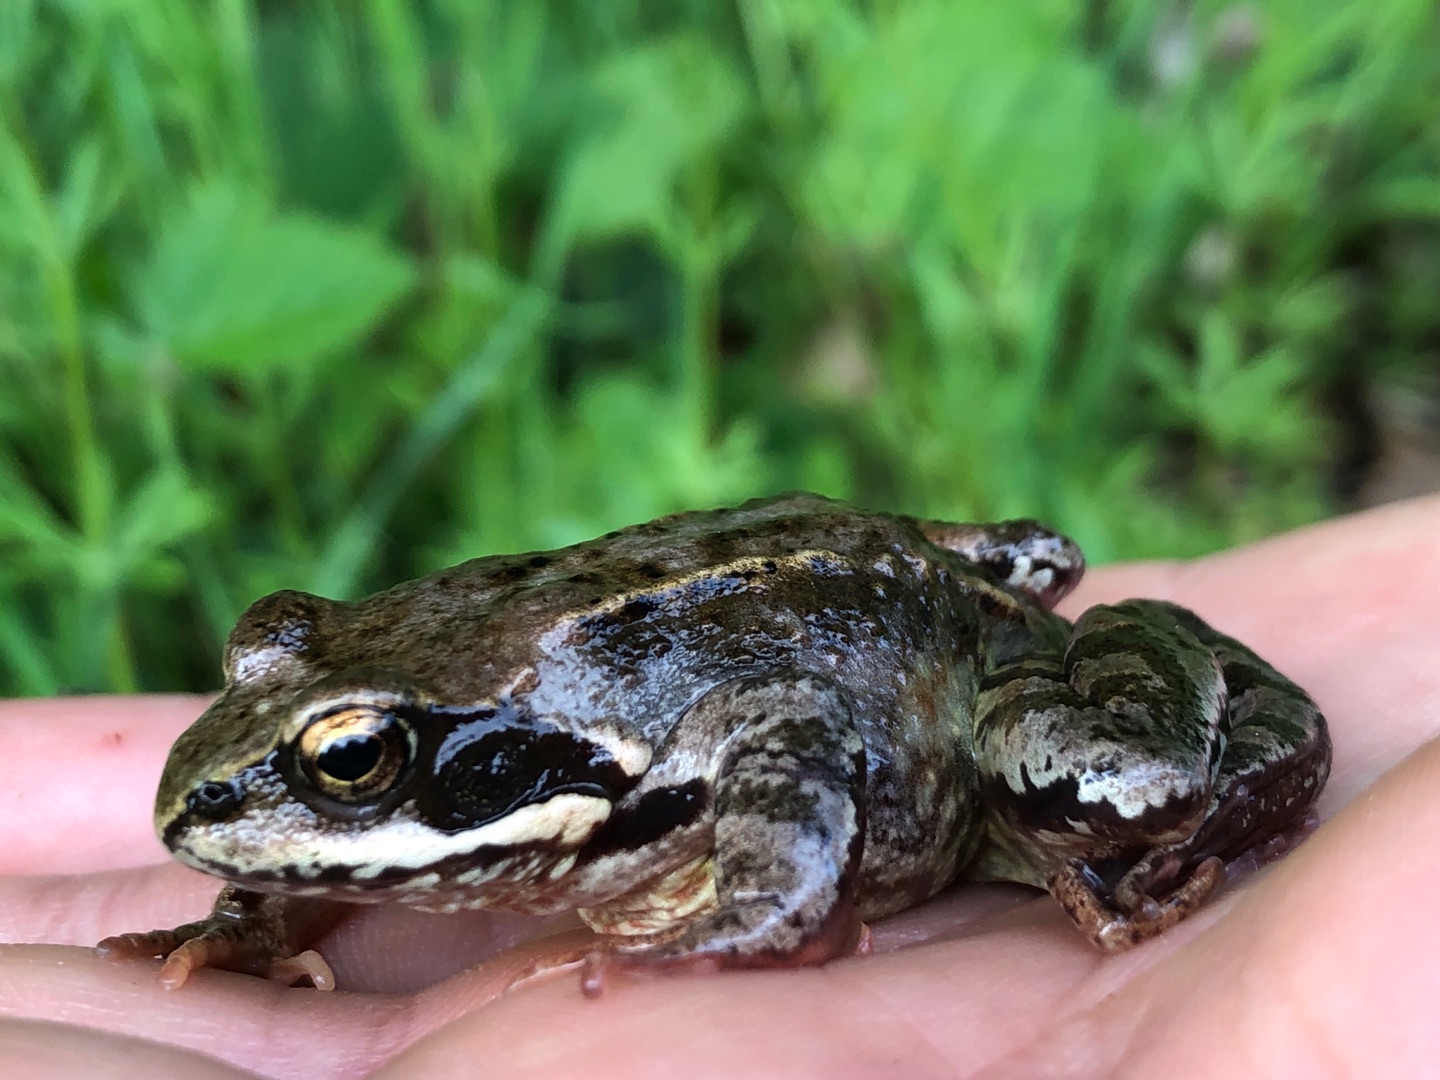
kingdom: Animalia
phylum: Chordata
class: Amphibia
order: Anura
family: Ranidae
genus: Rana
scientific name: Rana temporaria
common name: Butsnudet frø
